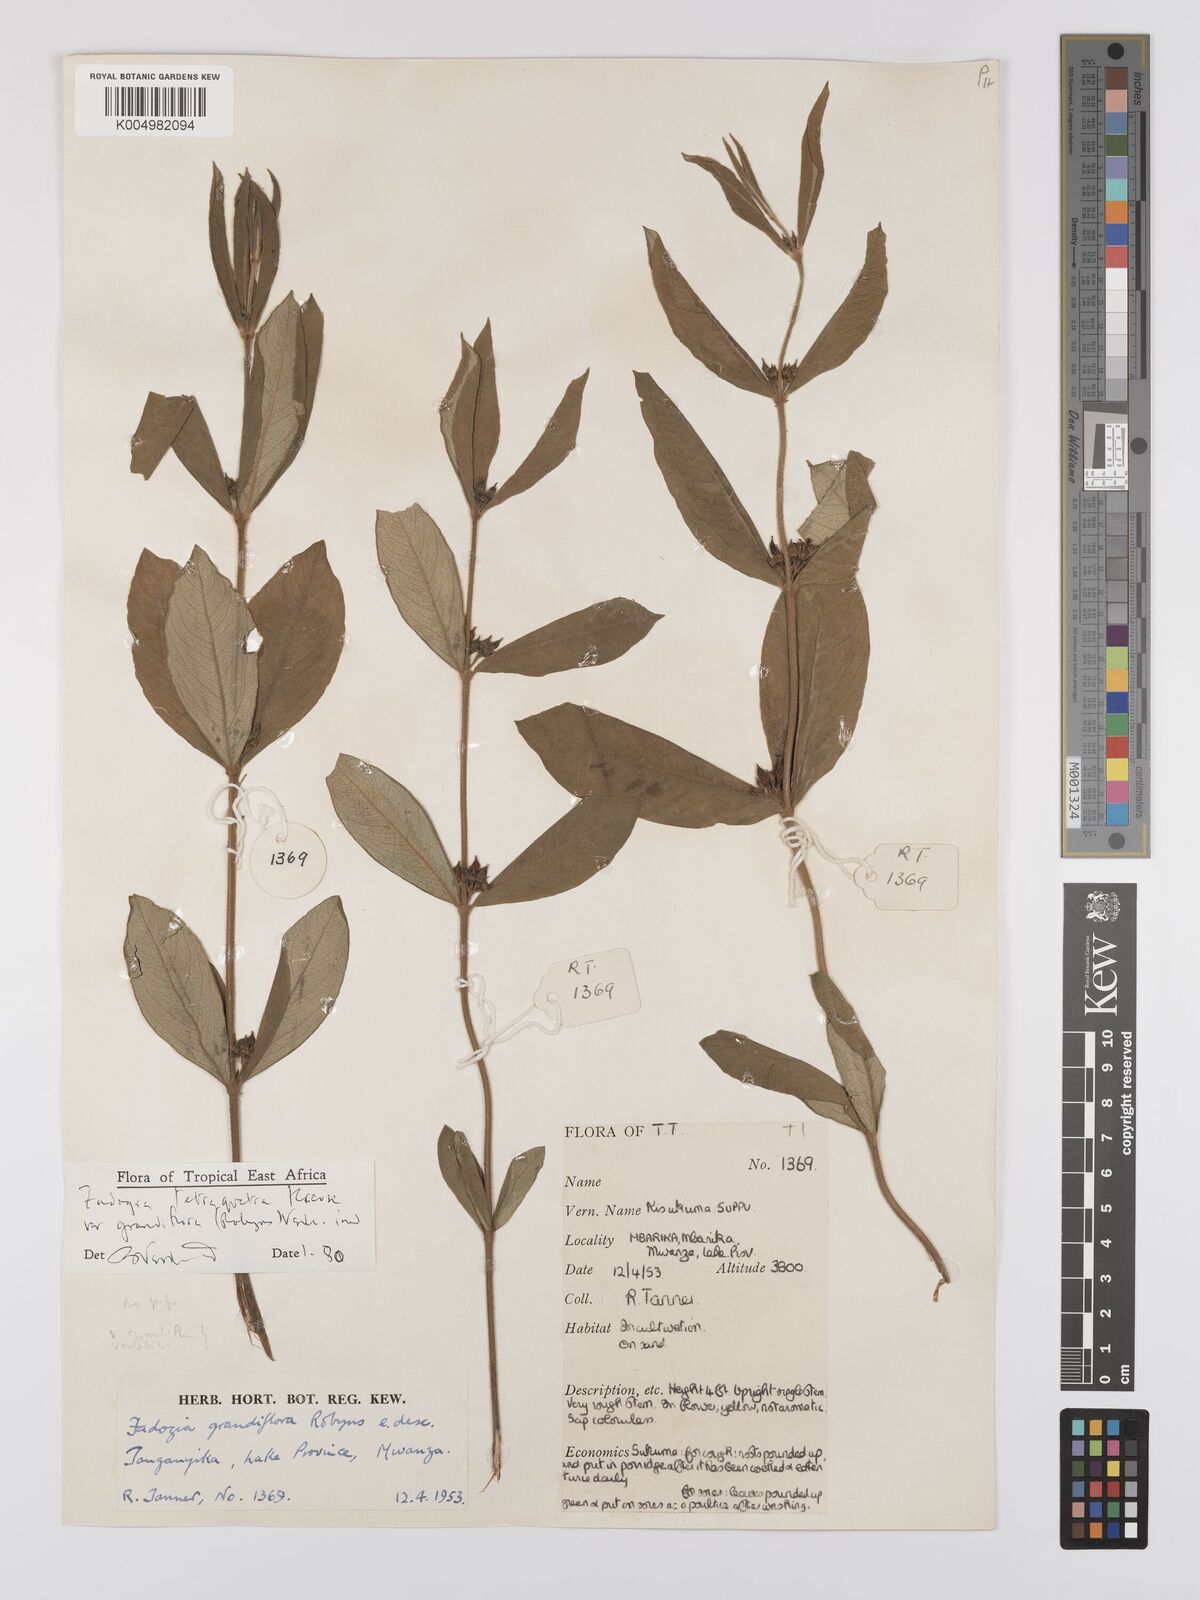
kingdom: Plantae
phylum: Tracheophyta
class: Magnoliopsida
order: Gentianales
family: Rubiaceae
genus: Fadogia
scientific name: Fadogia tetraquetra
